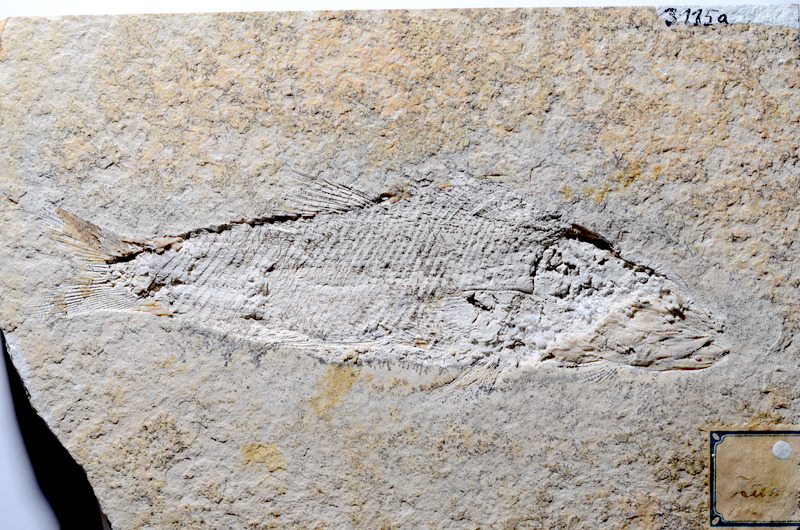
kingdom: Animalia
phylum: Chordata
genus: Zandtfuro
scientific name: Zandtfuro tischlingeri
